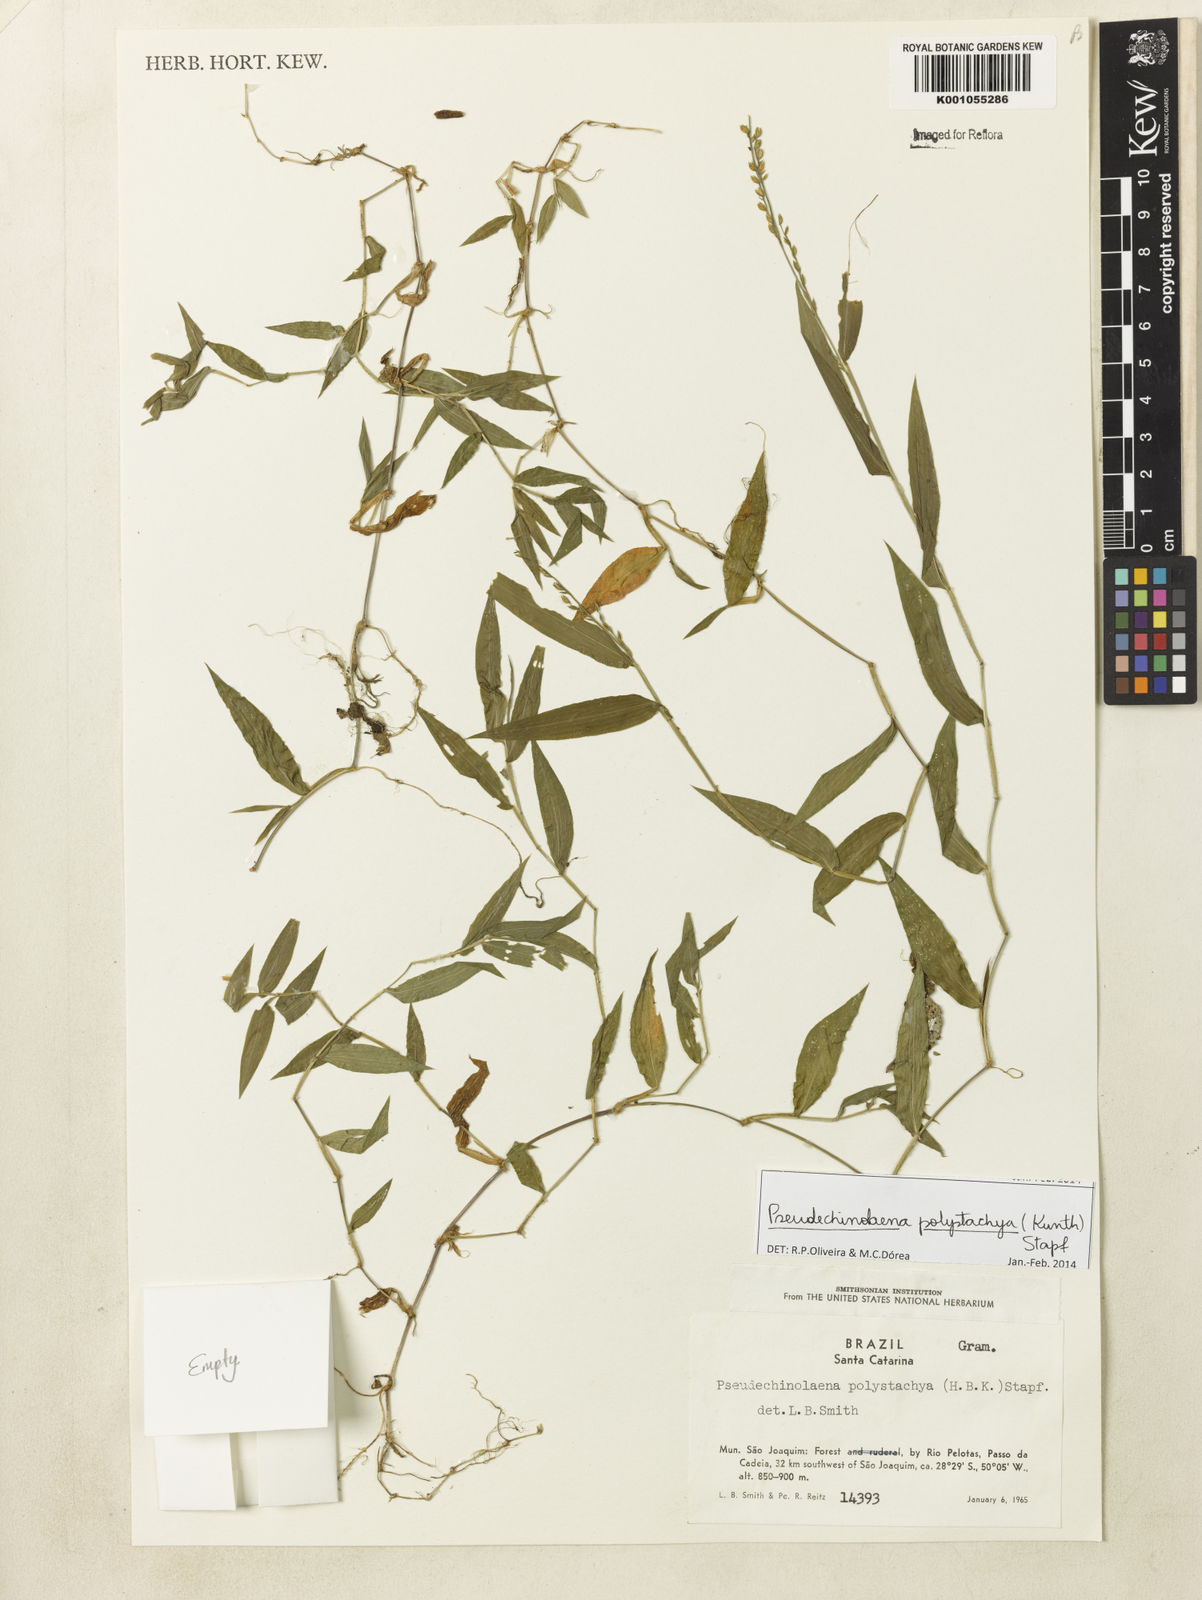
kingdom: Plantae
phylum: Tracheophyta
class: Liliopsida
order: Poales
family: Poaceae
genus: Pseudechinolaena
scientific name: Pseudechinolaena polystachya
